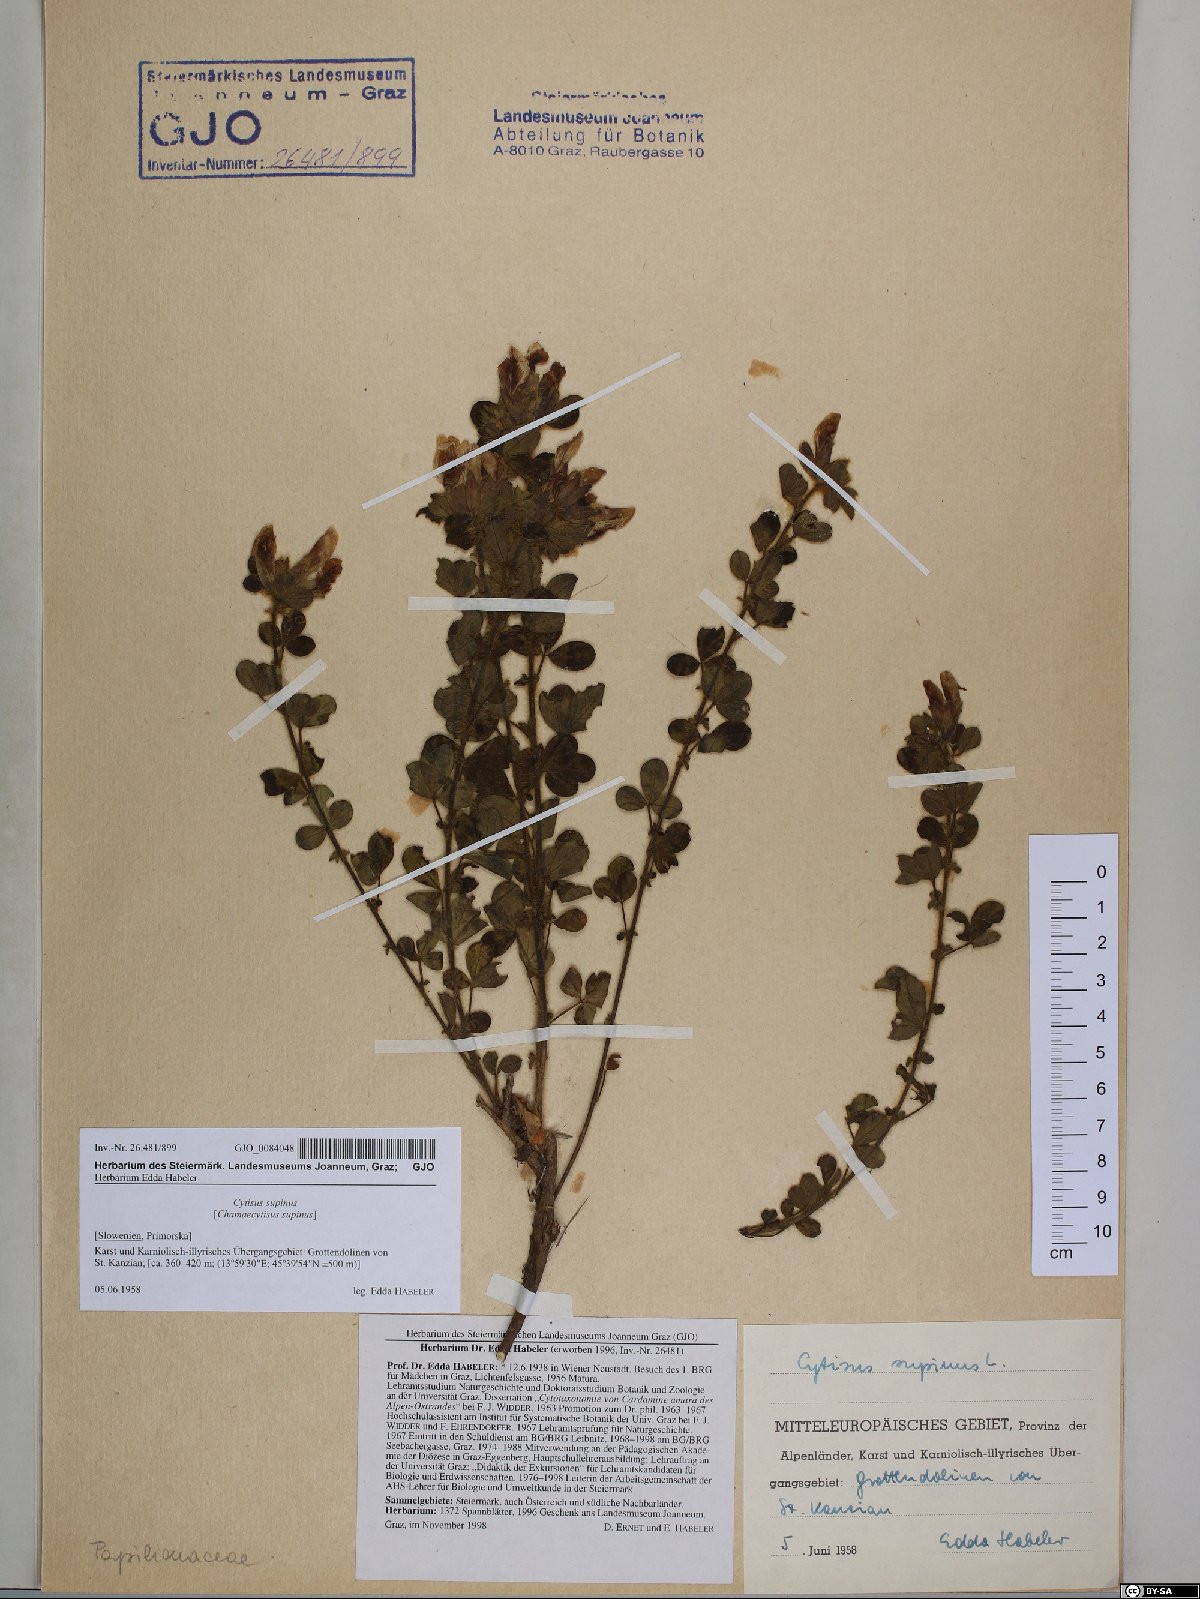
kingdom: Plantae
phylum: Tracheophyta
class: Magnoliopsida
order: Fabales
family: Fabaceae
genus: Chamaecytisus
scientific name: Chamaecytisus supinus
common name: Clustered broom
